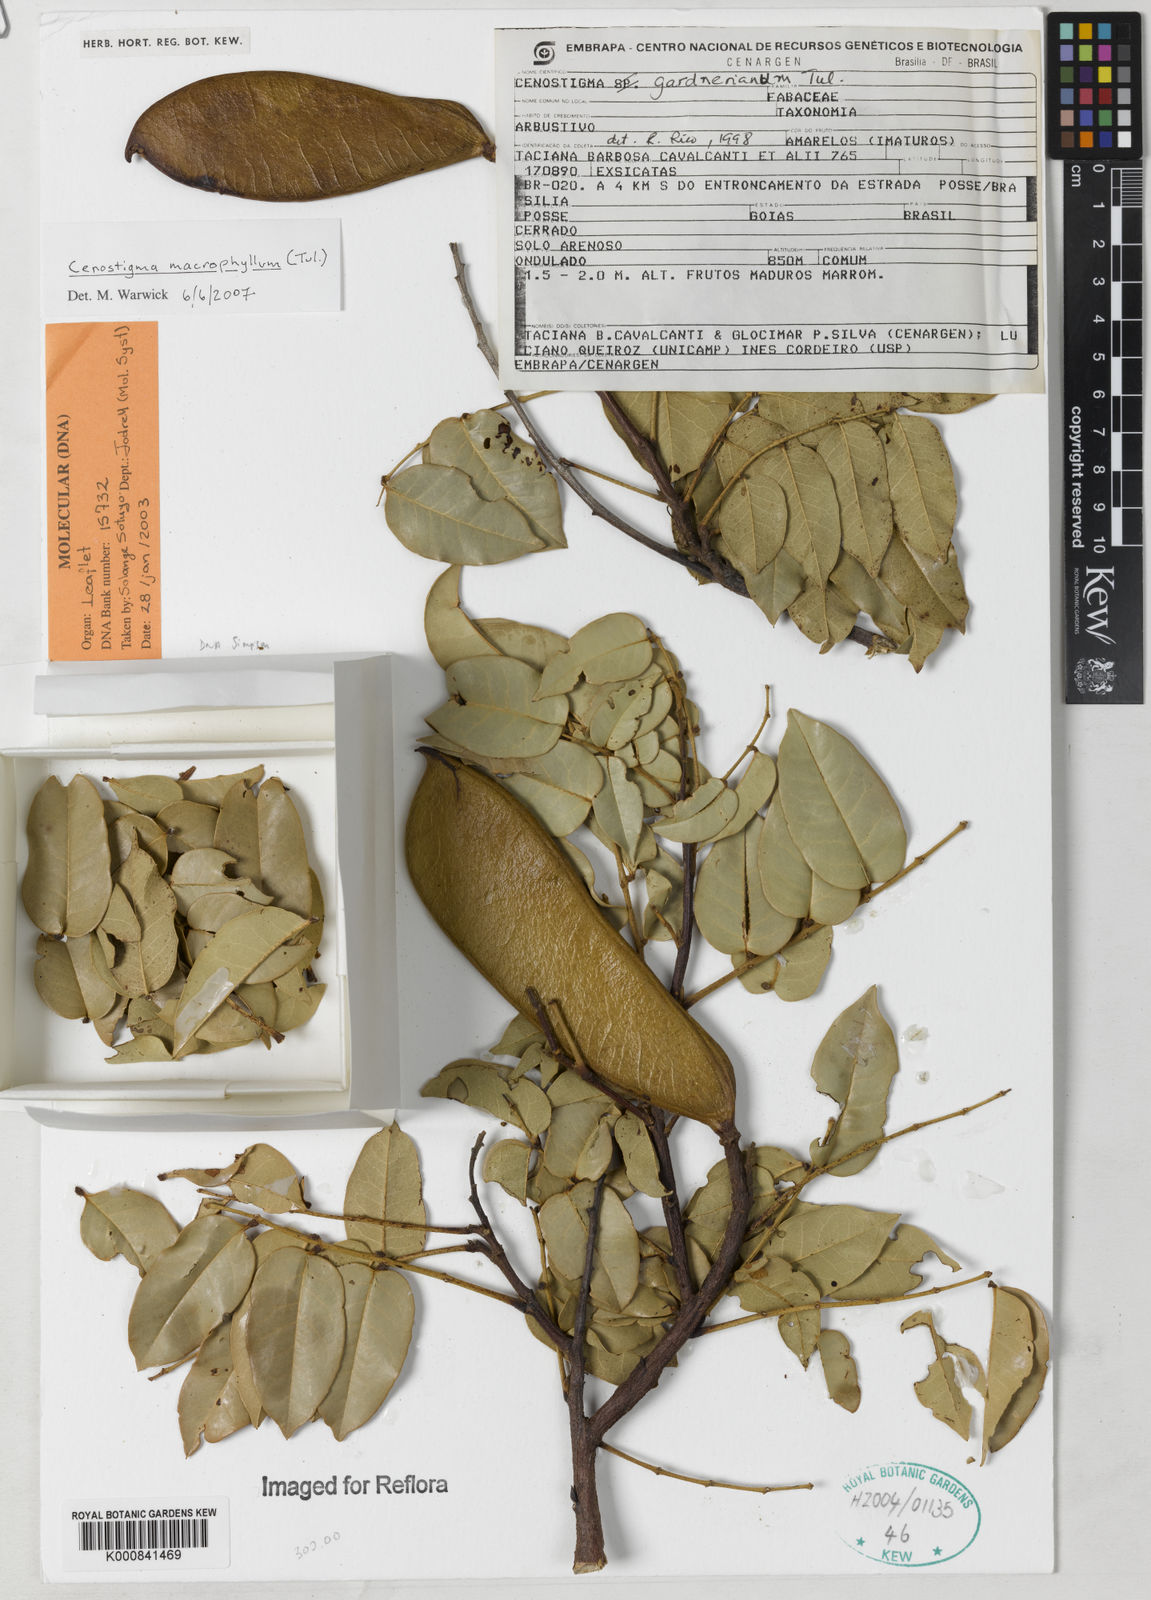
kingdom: Plantae
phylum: Tracheophyta
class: Magnoliopsida
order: Fabales
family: Fabaceae
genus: Cenostigma
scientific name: Cenostigma macrophyllum
